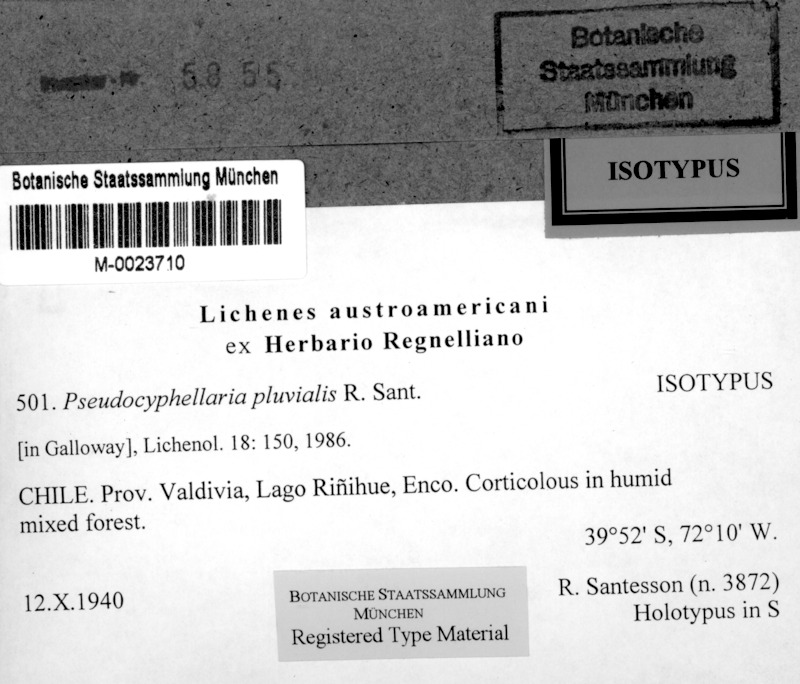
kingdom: Fungi
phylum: Ascomycota
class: Lecanoromycetes
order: Peltigerales
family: Lobariaceae
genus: Pseudocyphellaria
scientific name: Pseudocyphellaria pluvialis
